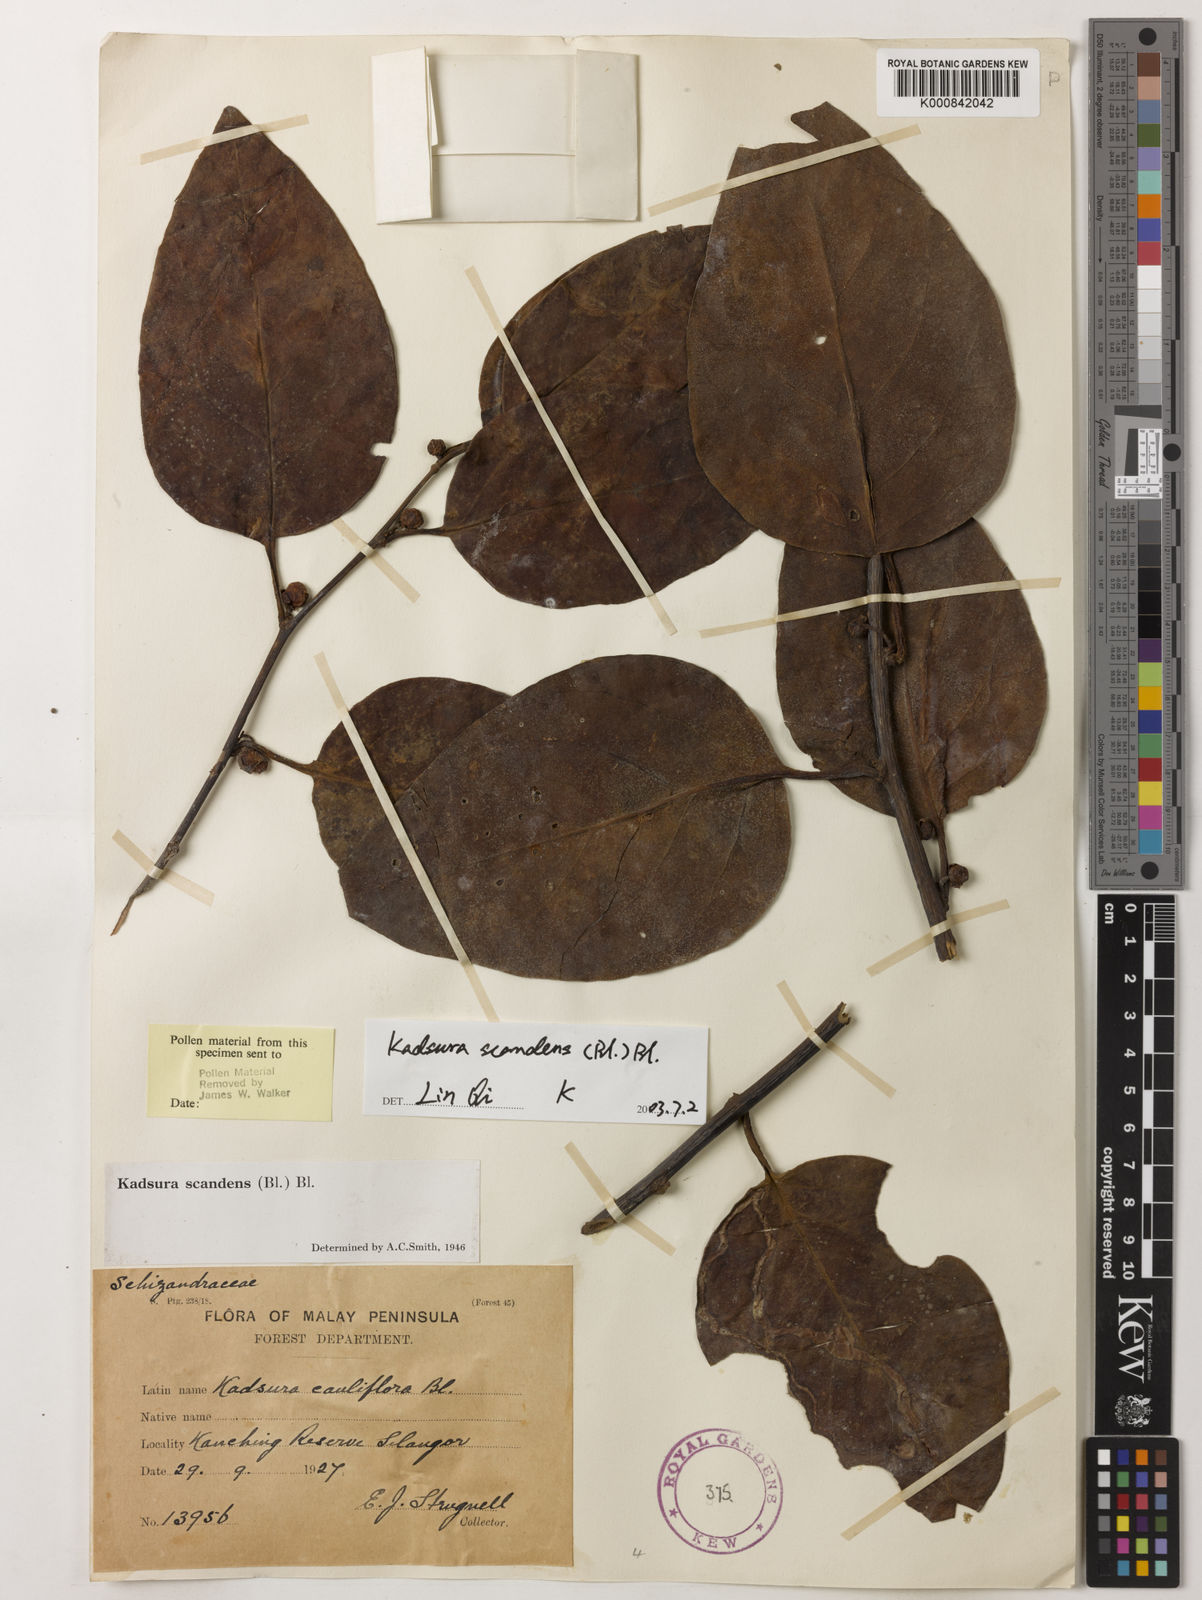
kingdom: Plantae
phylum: Tracheophyta
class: Magnoliopsida
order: Austrobaileyales
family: Schisandraceae
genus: Kadsura
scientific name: Kadsura scandens
